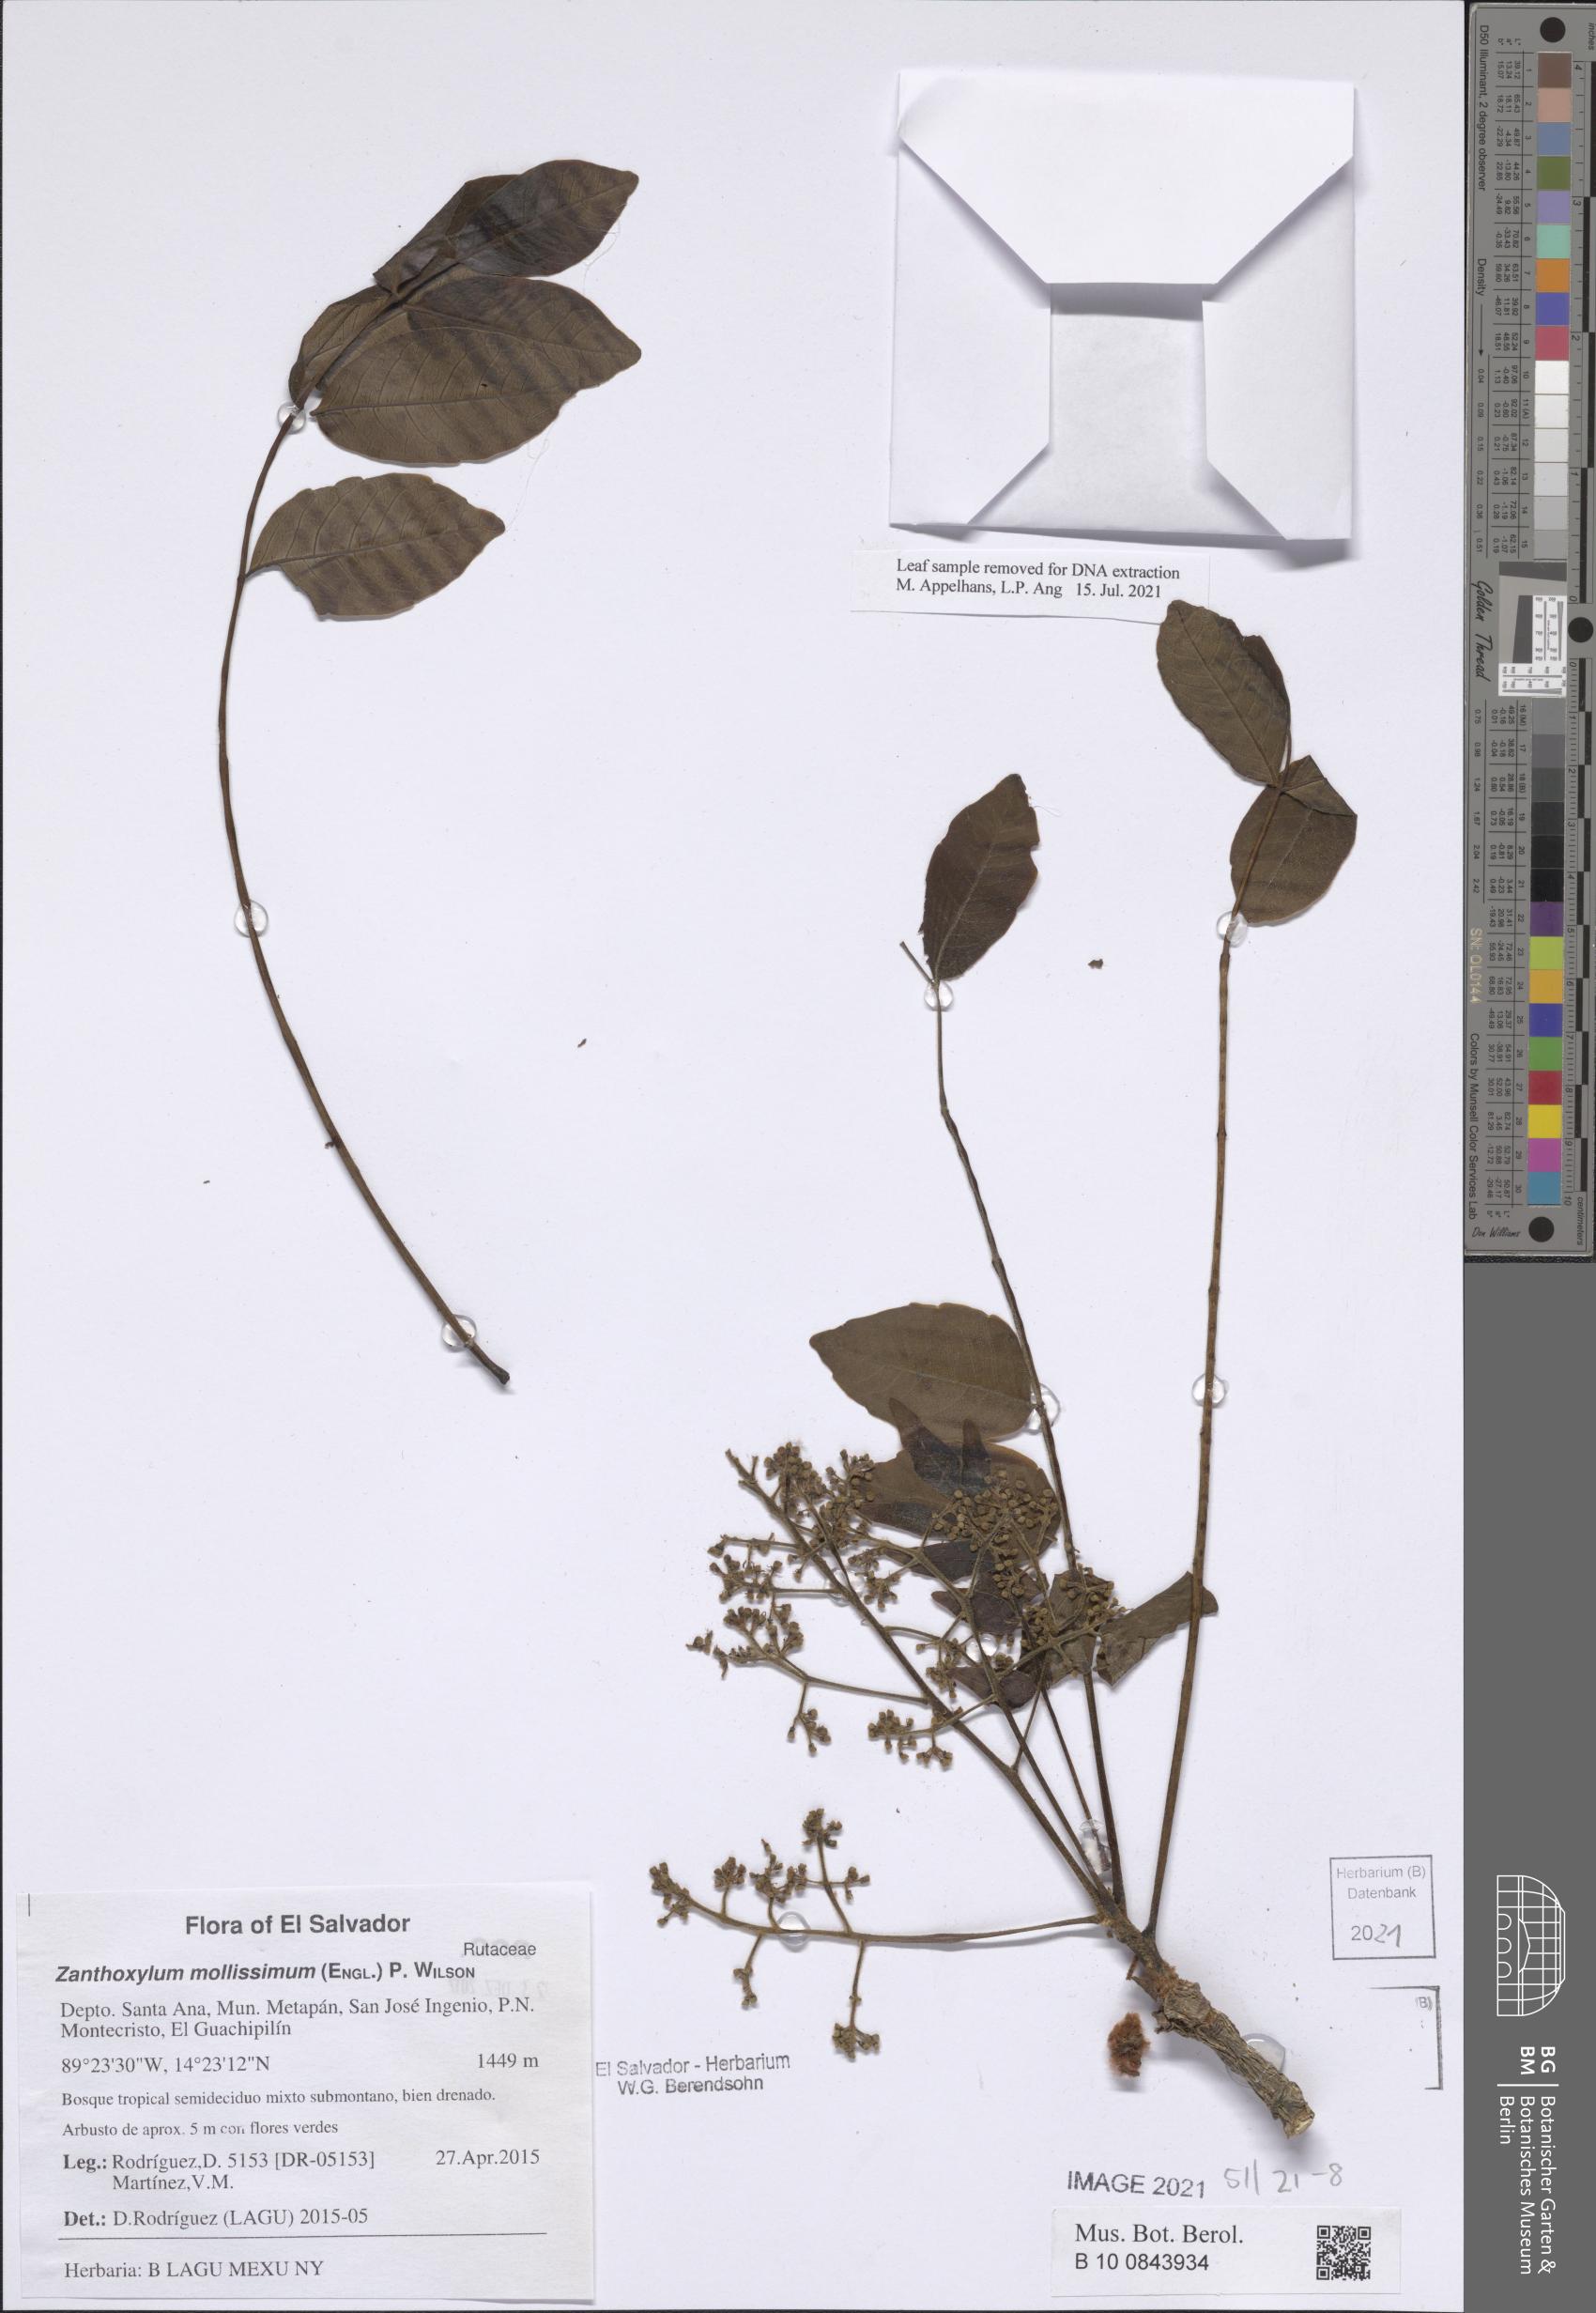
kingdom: Plantae
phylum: Tracheophyta
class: Magnoliopsida
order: Sapindales
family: Rutaceae
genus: Zanthoxylum
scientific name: Zanthoxylum mollissimum
